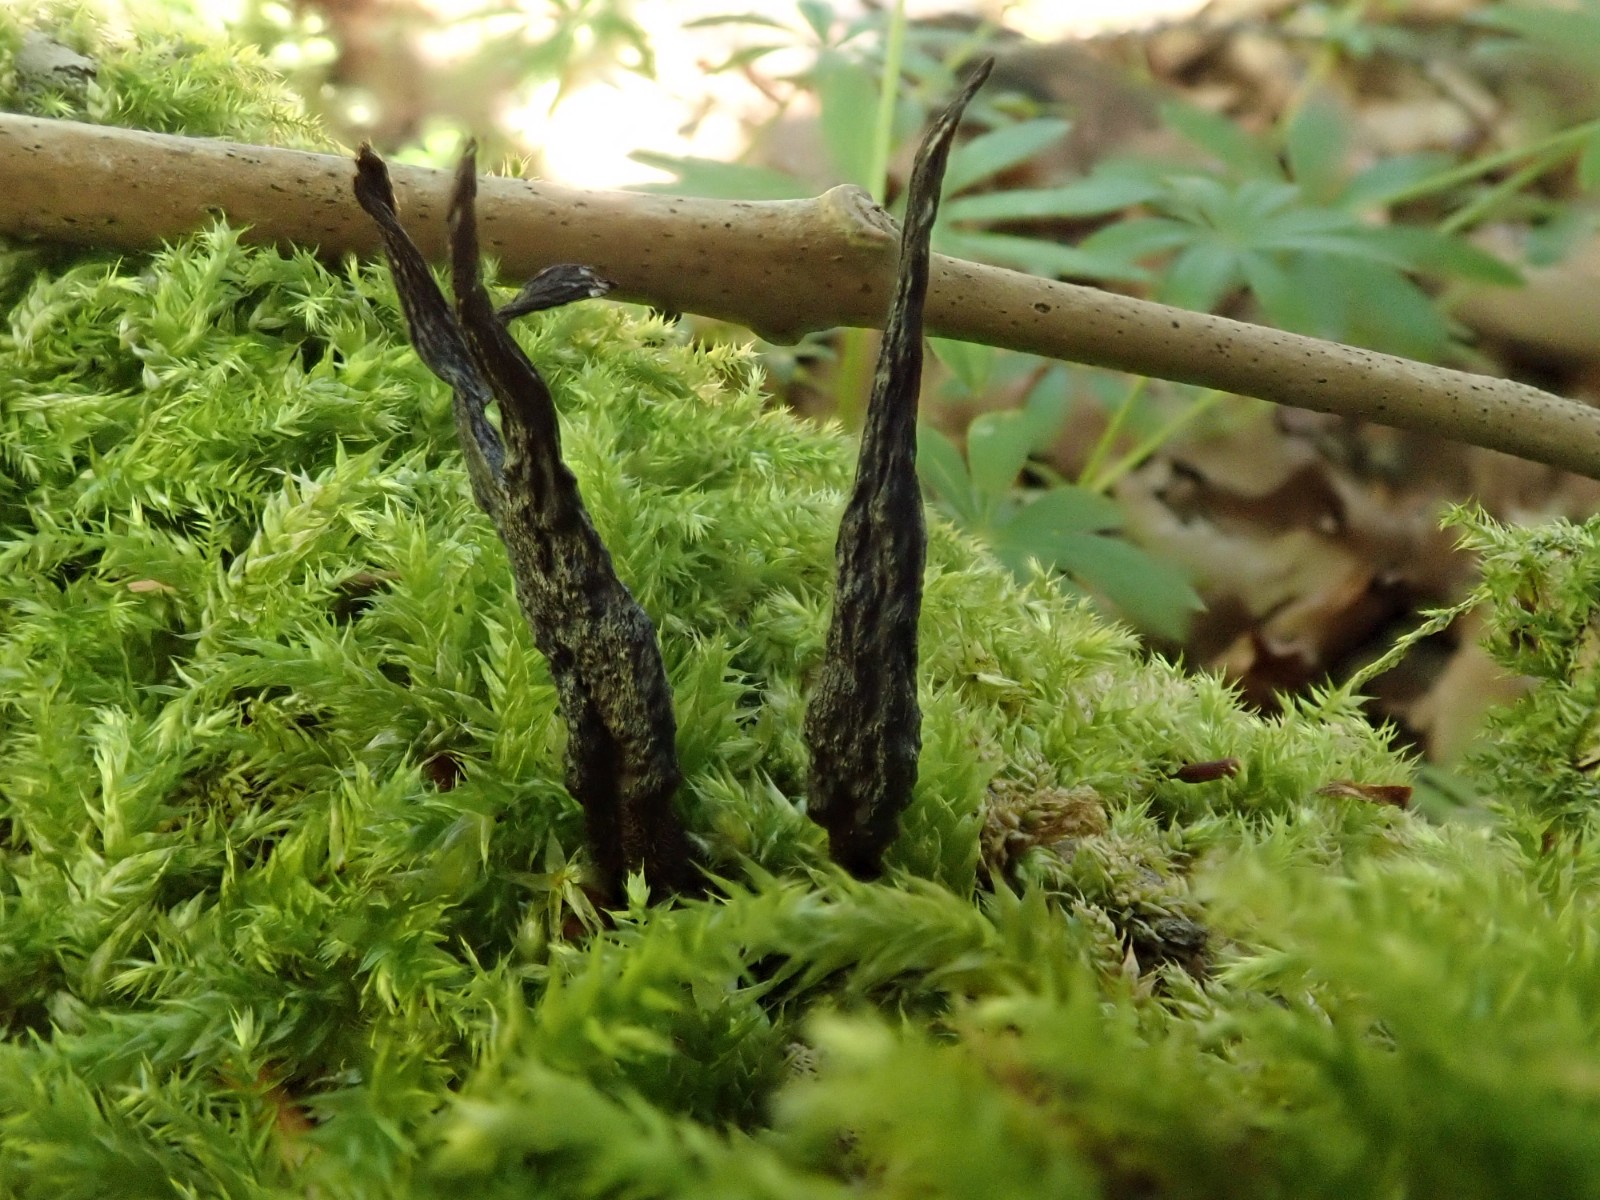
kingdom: Fungi
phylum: Ascomycota
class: Sordariomycetes
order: Xylariales
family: Xylariaceae
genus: Xylaria
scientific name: Xylaria hypoxylon
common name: grenet stødsvamp
